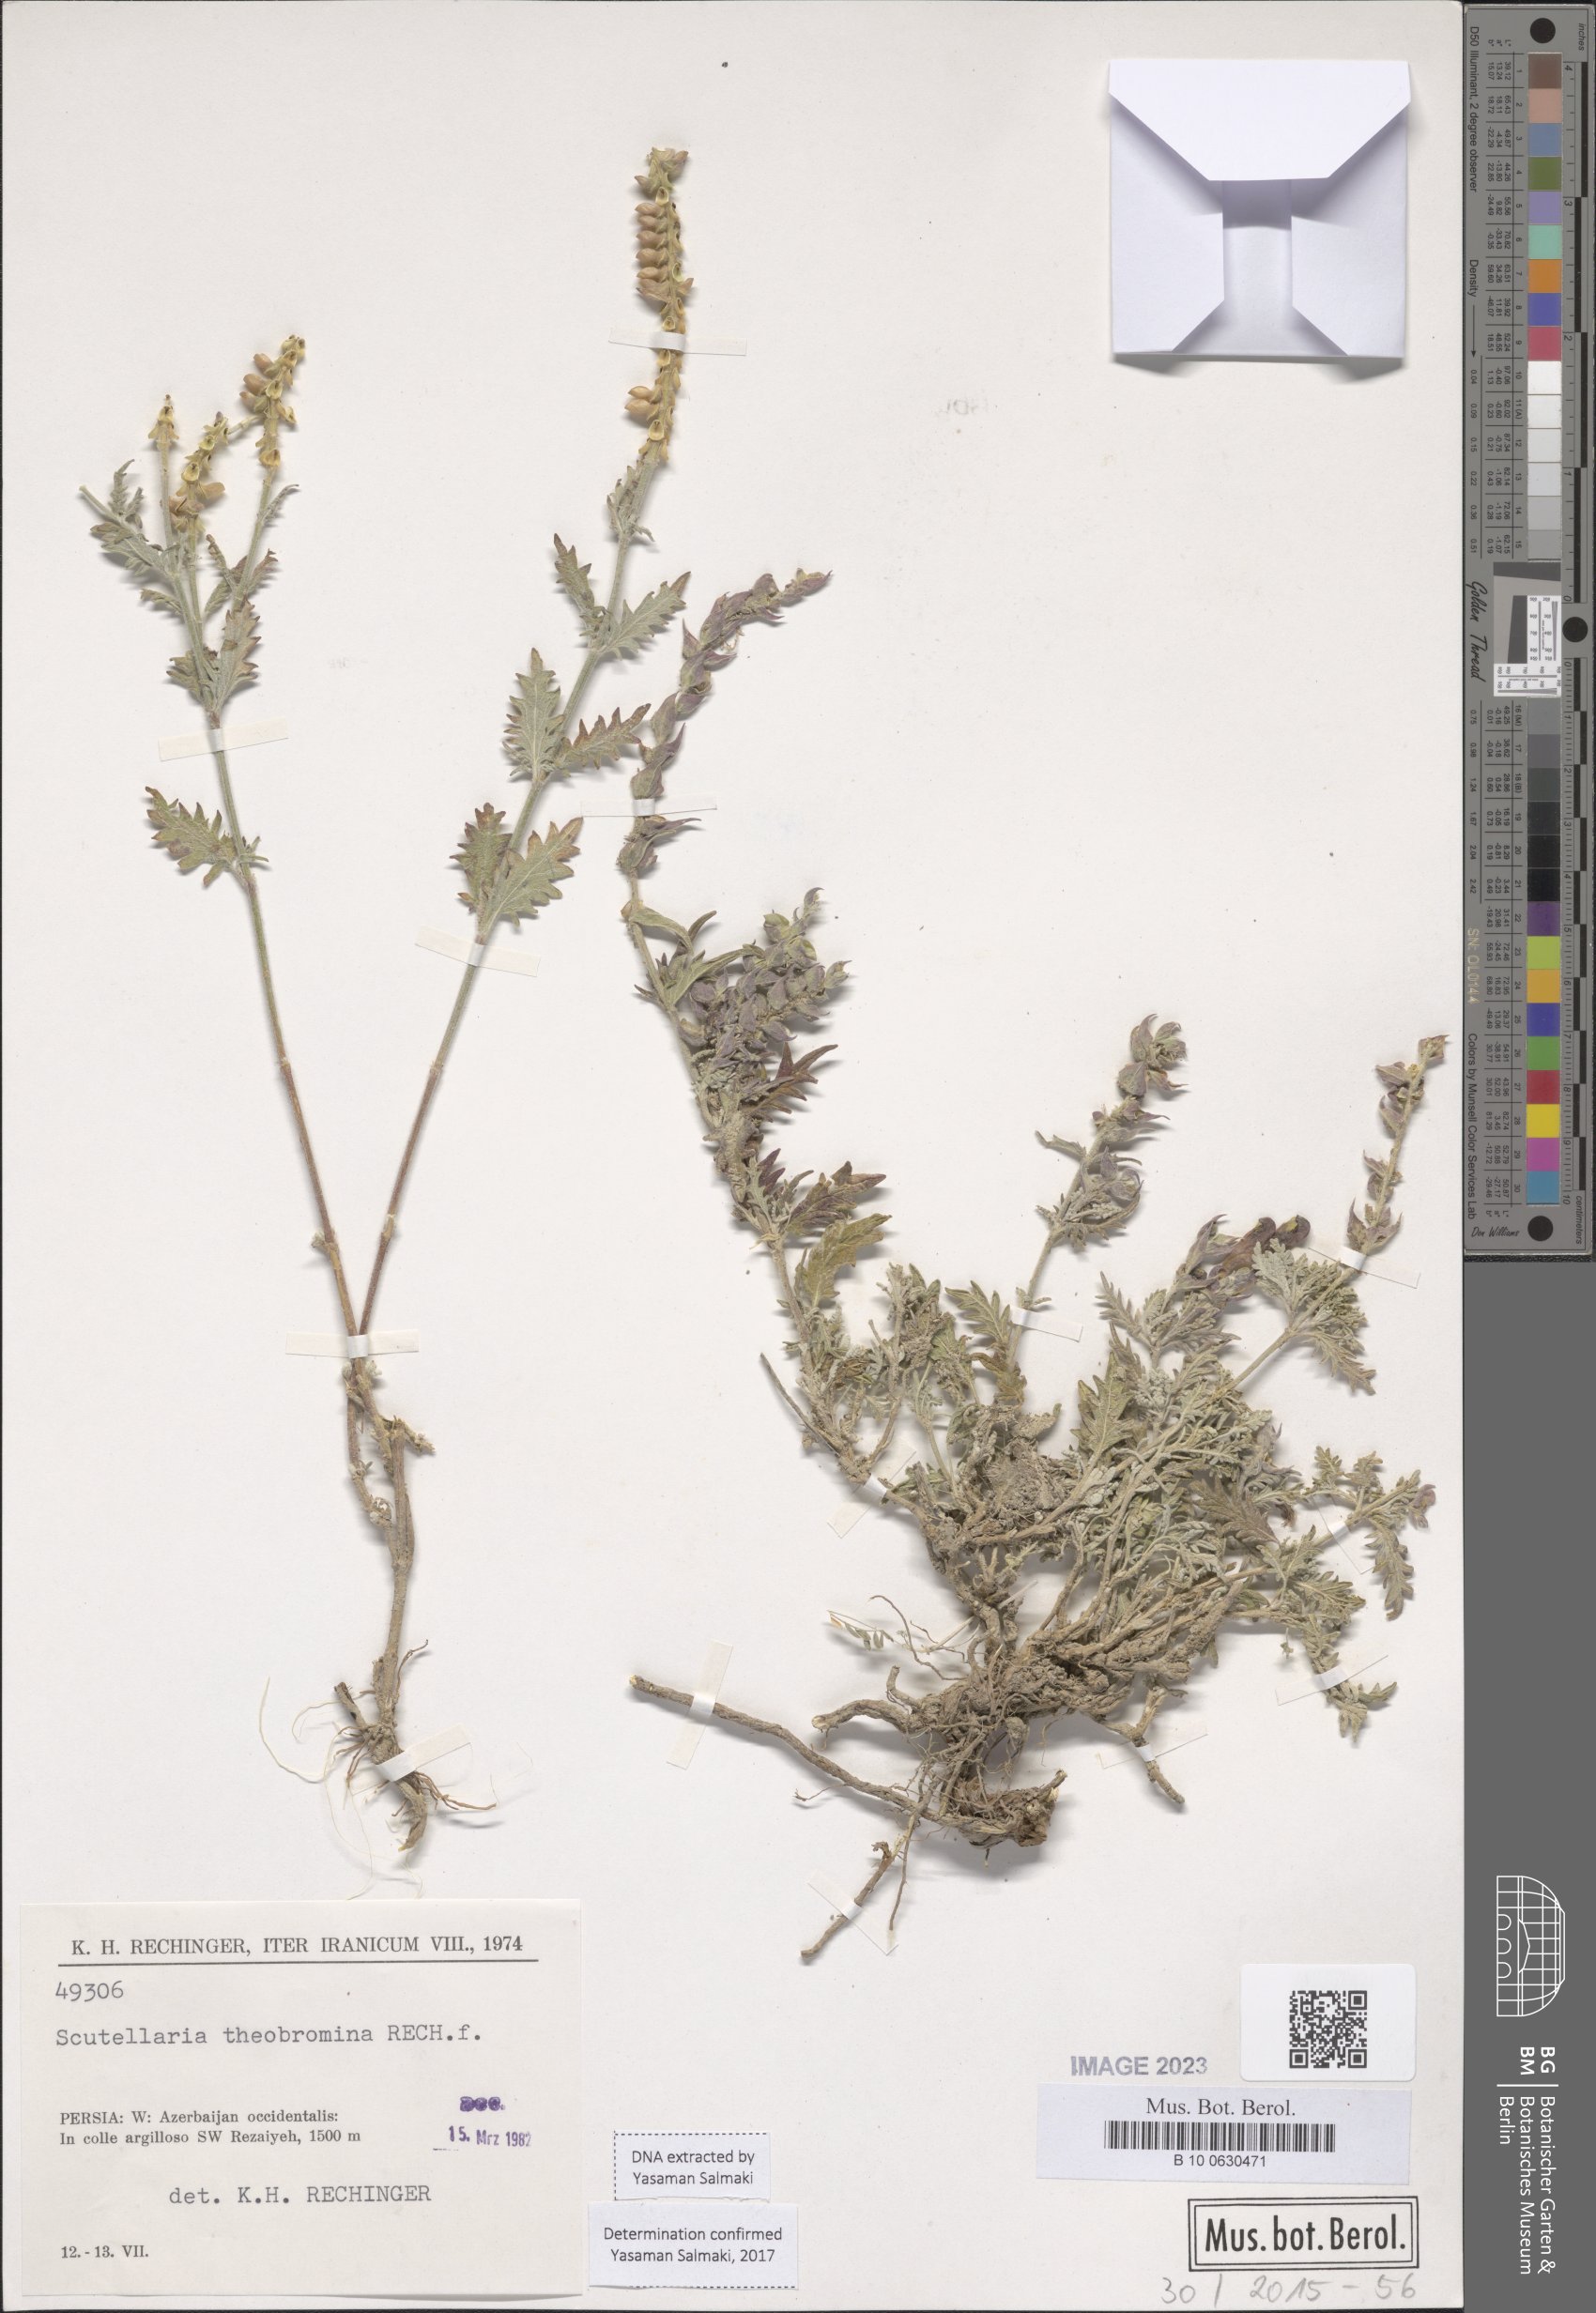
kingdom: Plantae
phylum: Tracheophyta
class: Magnoliopsida
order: Lamiales
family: Lamiaceae
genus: Scutellaria
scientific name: Scutellaria theobromina
